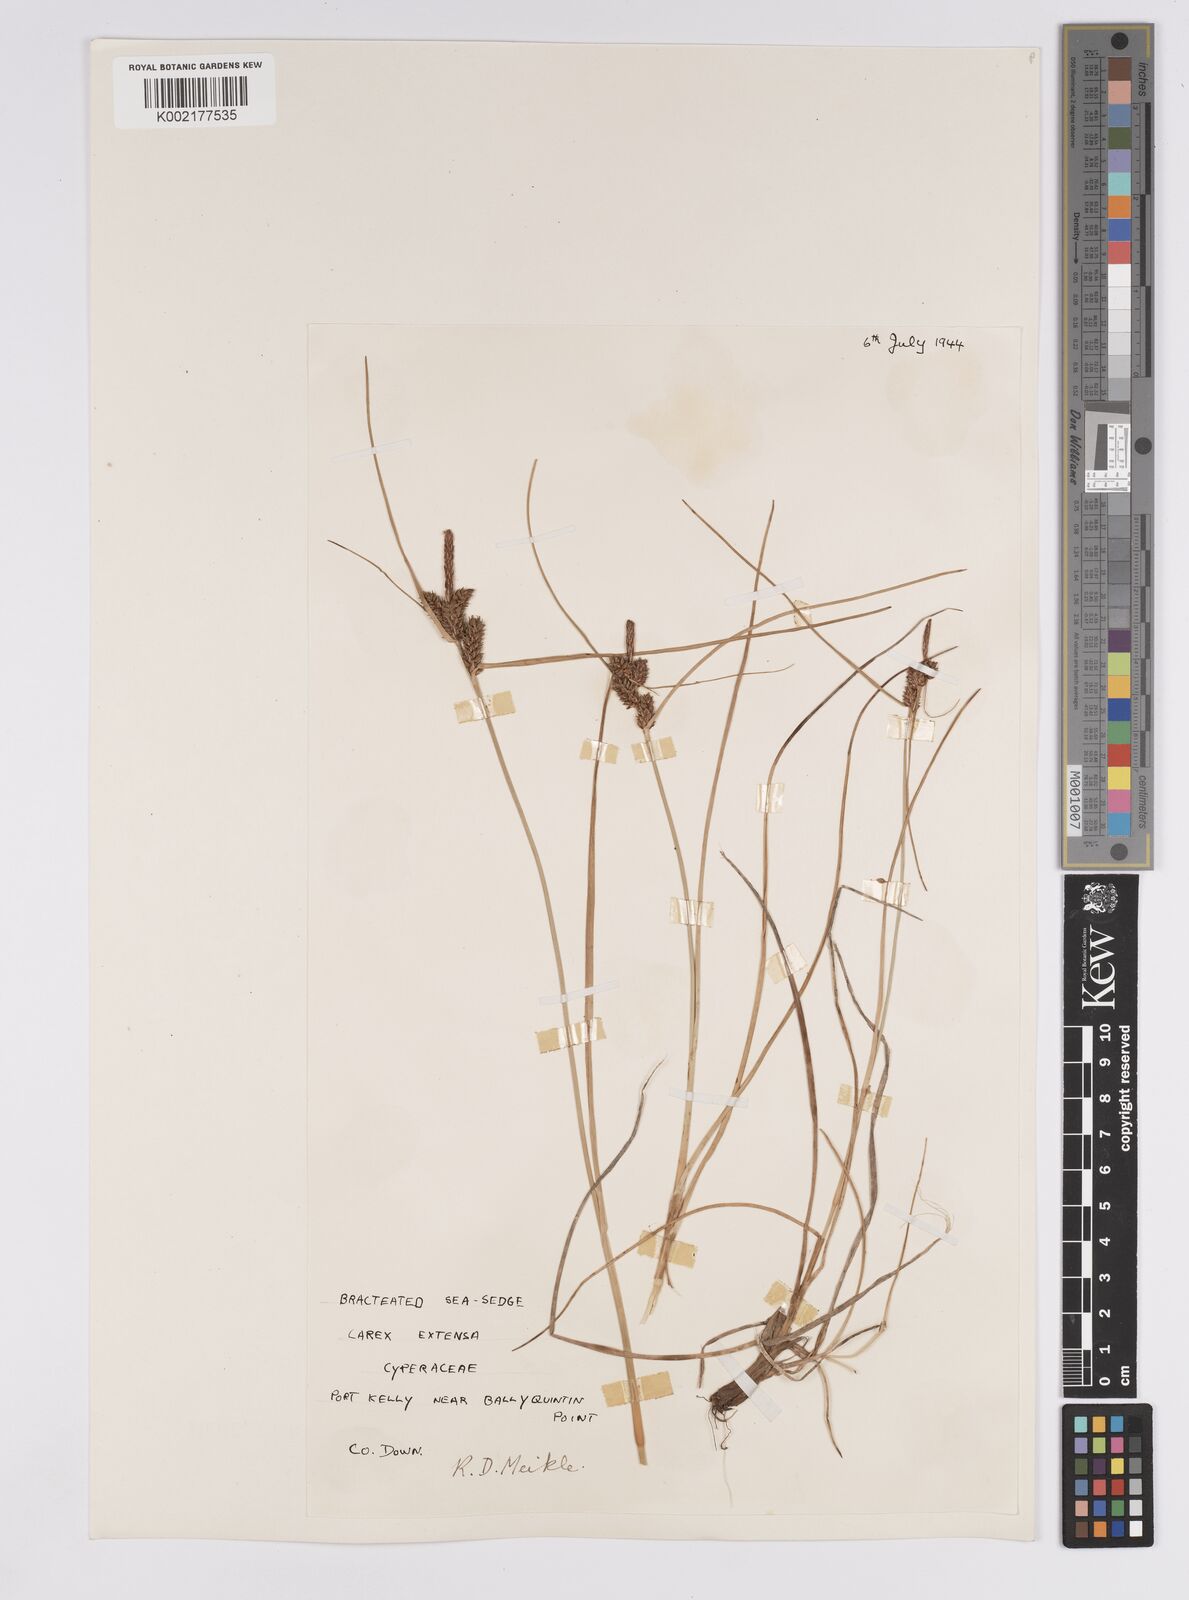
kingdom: Plantae
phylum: Tracheophyta
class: Liliopsida
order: Poales
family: Cyperaceae
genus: Carex
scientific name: Carex extensa
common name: Long-bracted sedge
